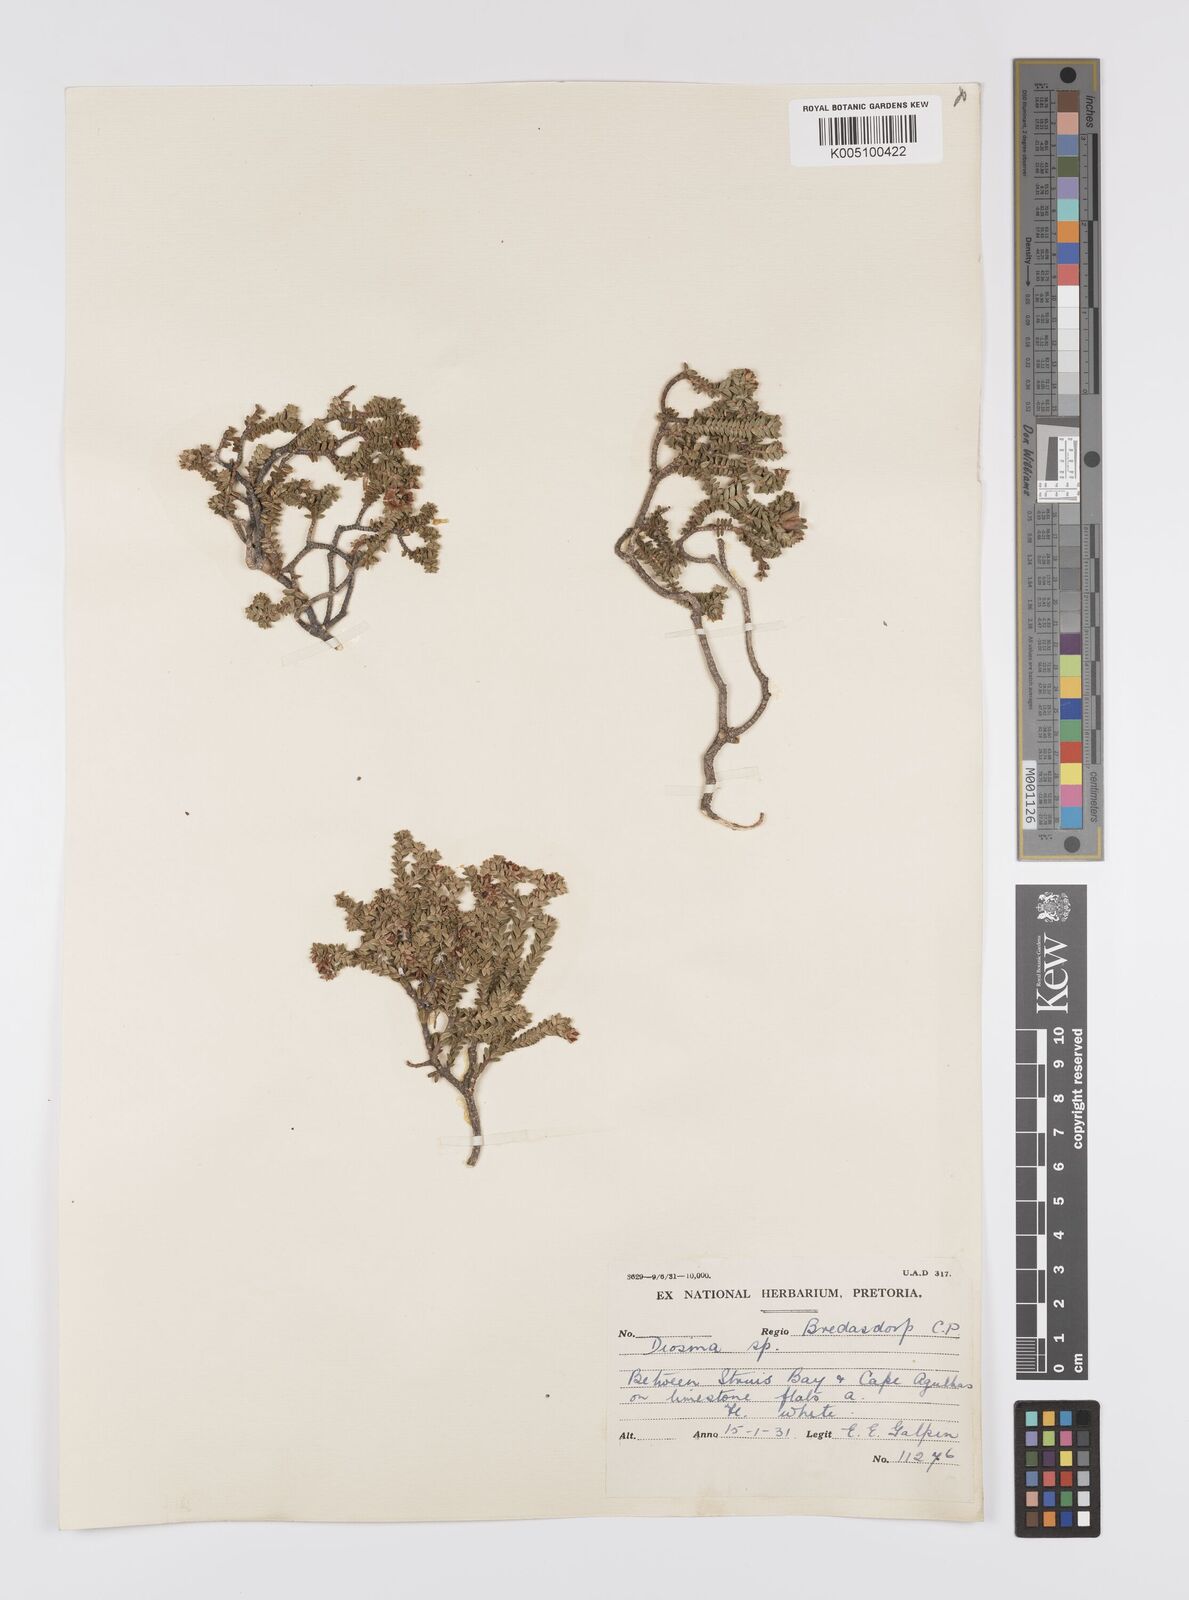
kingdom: Plantae
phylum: Tracheophyta
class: Magnoliopsida
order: Sapindales
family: Rutaceae
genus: Diosma
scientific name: Diosma guthriei
